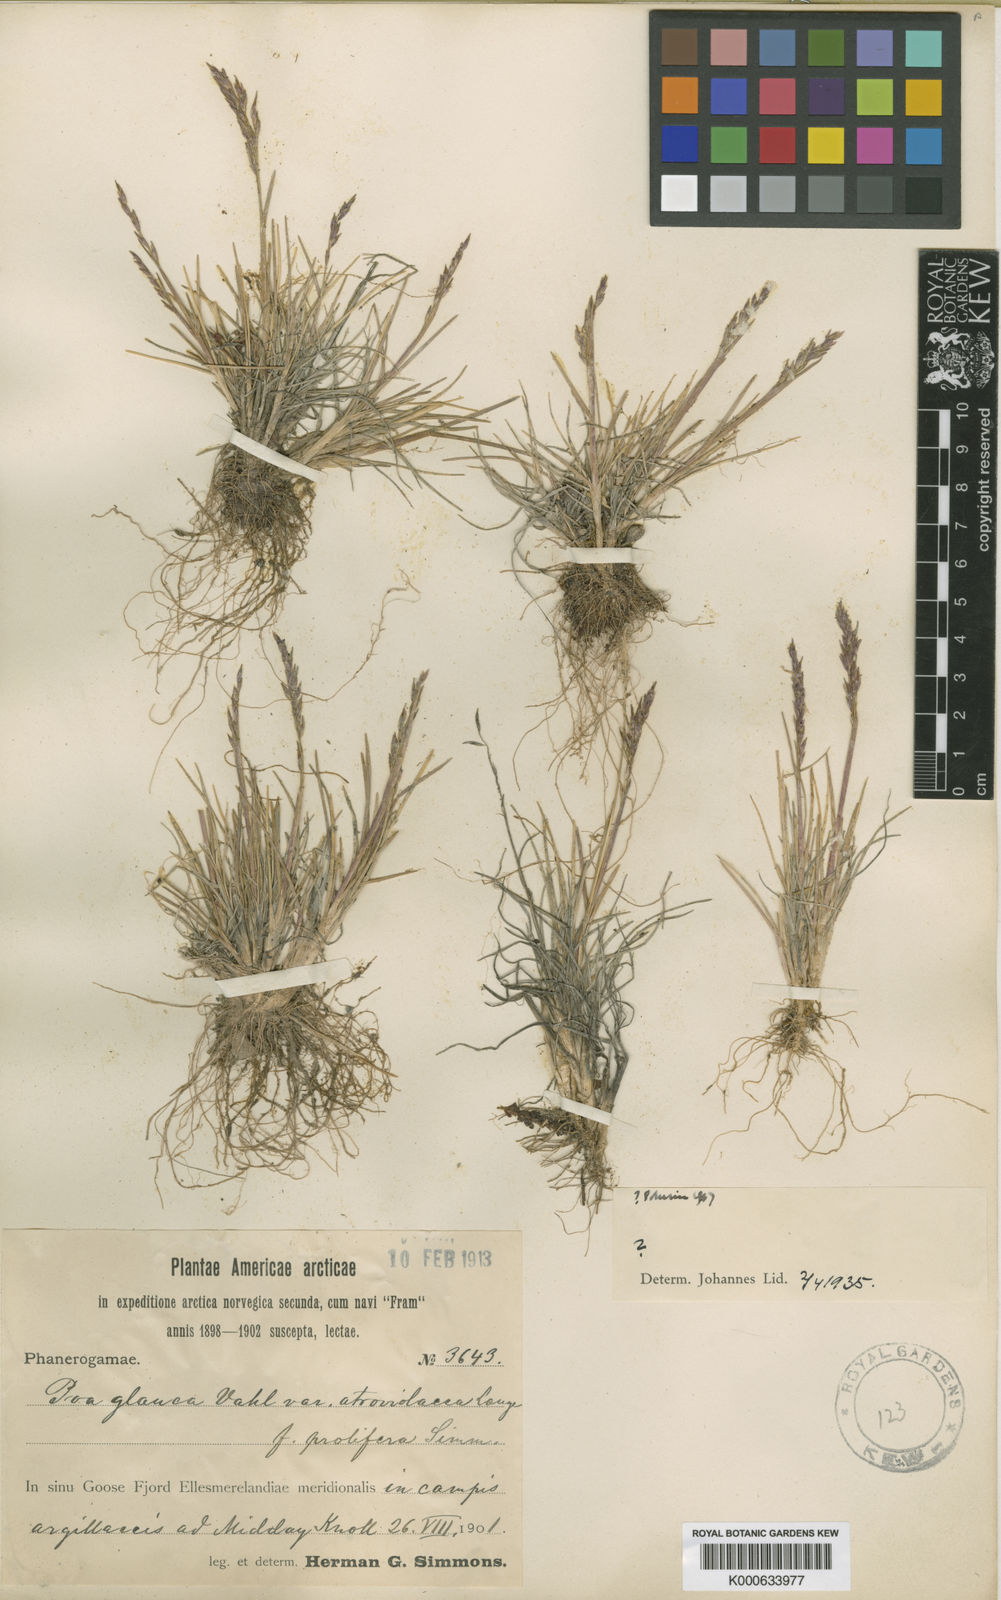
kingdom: Plantae
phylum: Tracheophyta
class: Liliopsida
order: Poales
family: Poaceae
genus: Poa
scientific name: Poa glauca
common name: Glaucous bluegrass
